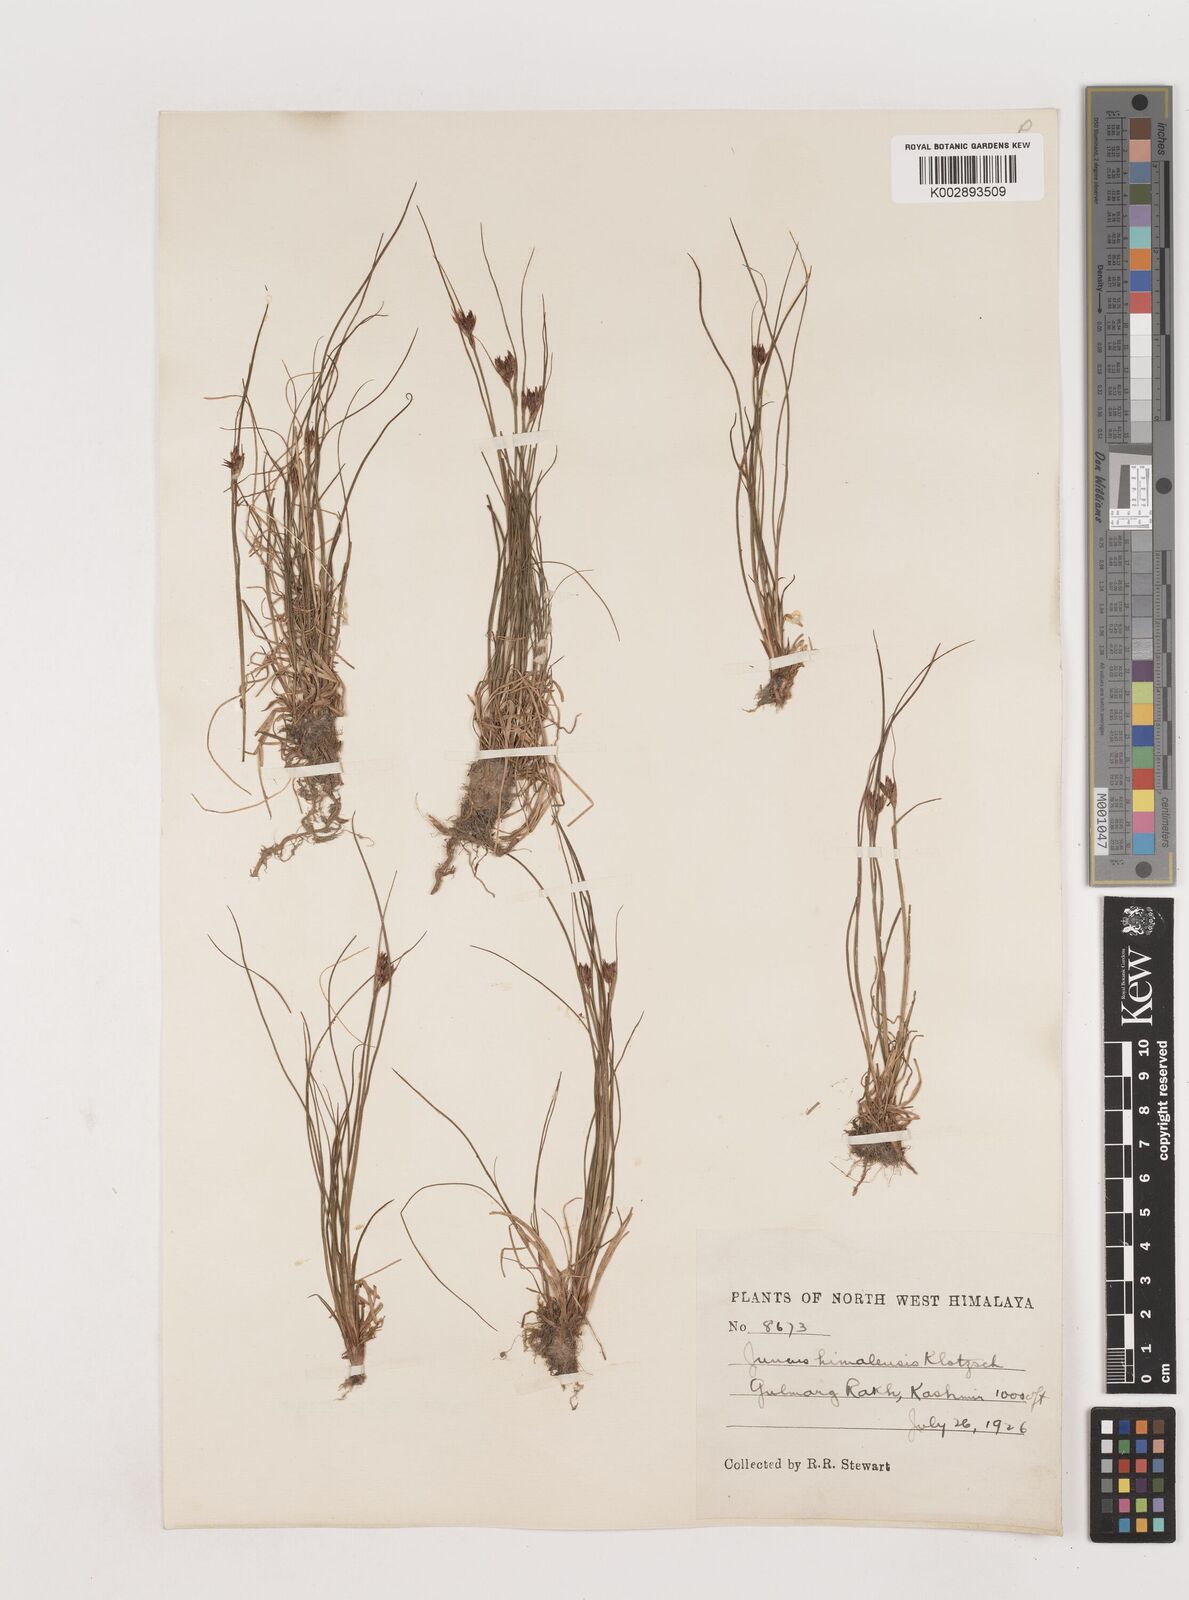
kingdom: Plantae
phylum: Tracheophyta
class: Liliopsida
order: Poales
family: Juncaceae
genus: Juncus
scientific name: Juncus himalensis
